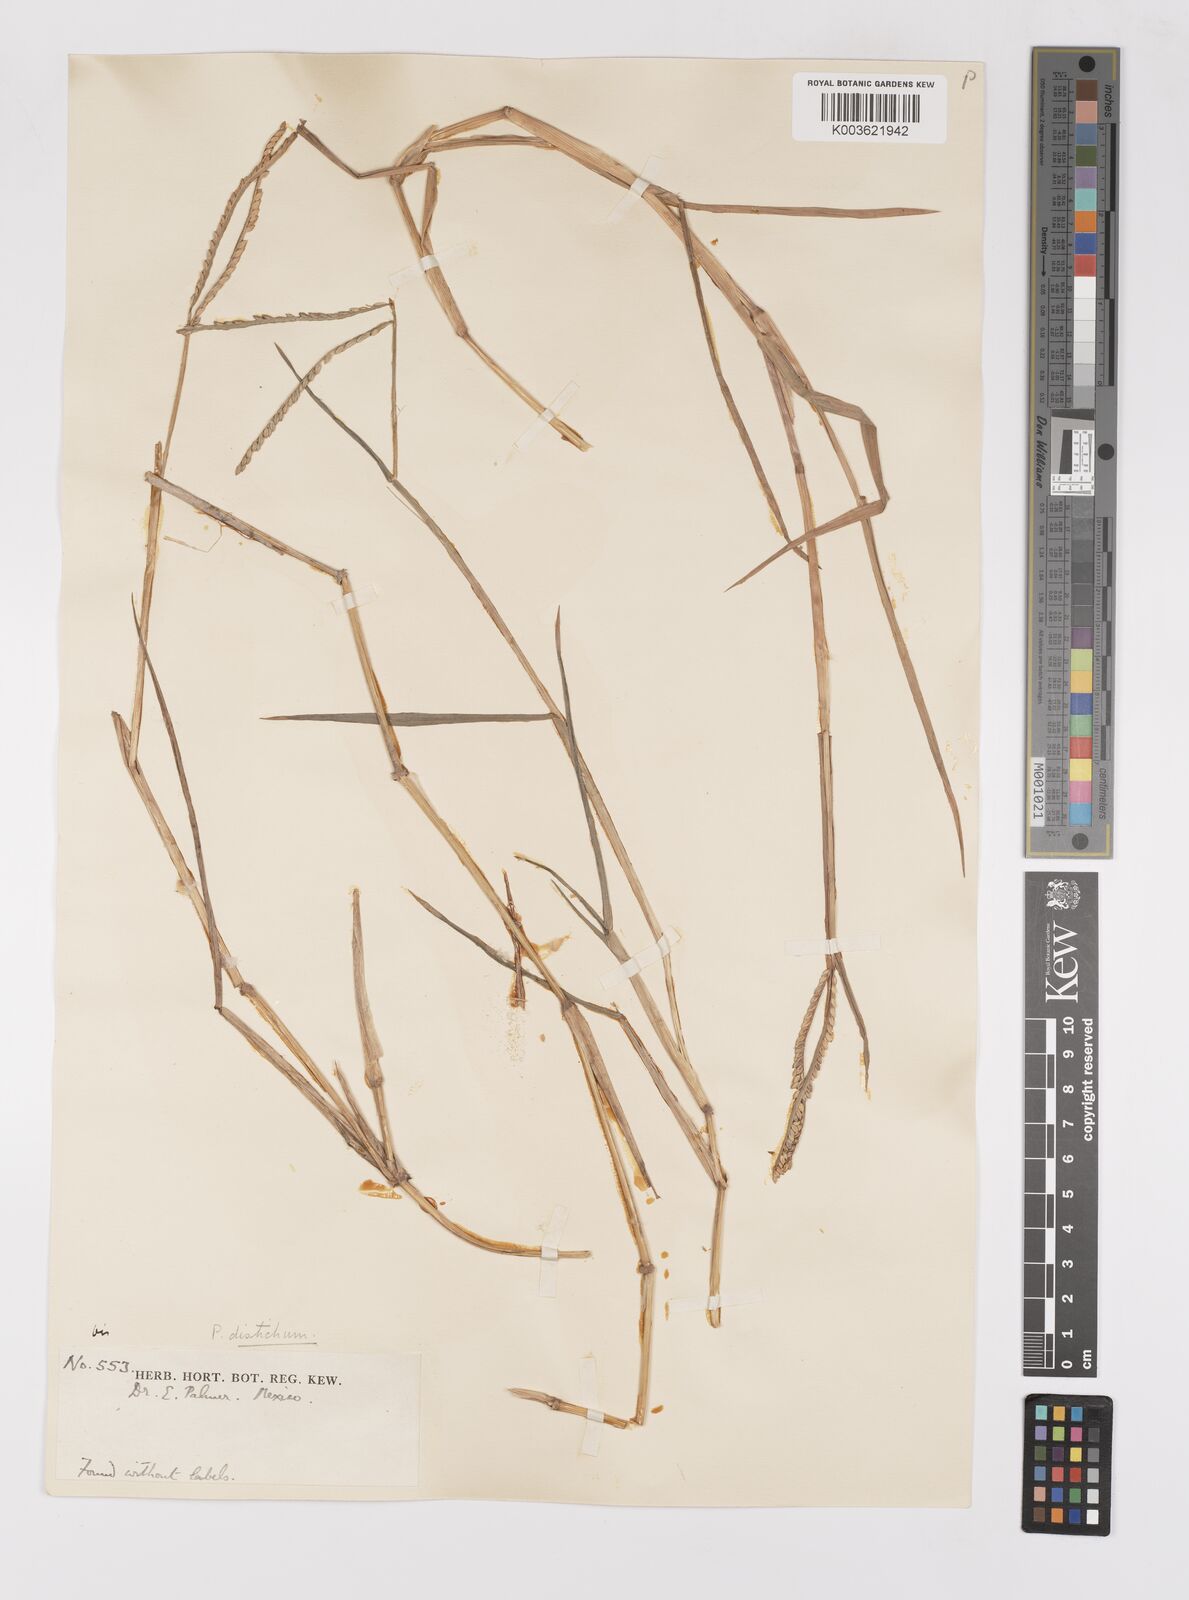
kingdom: Plantae
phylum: Tracheophyta
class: Liliopsida
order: Poales
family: Poaceae
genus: Paspalum
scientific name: Paspalum distichum
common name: Knotgrass
